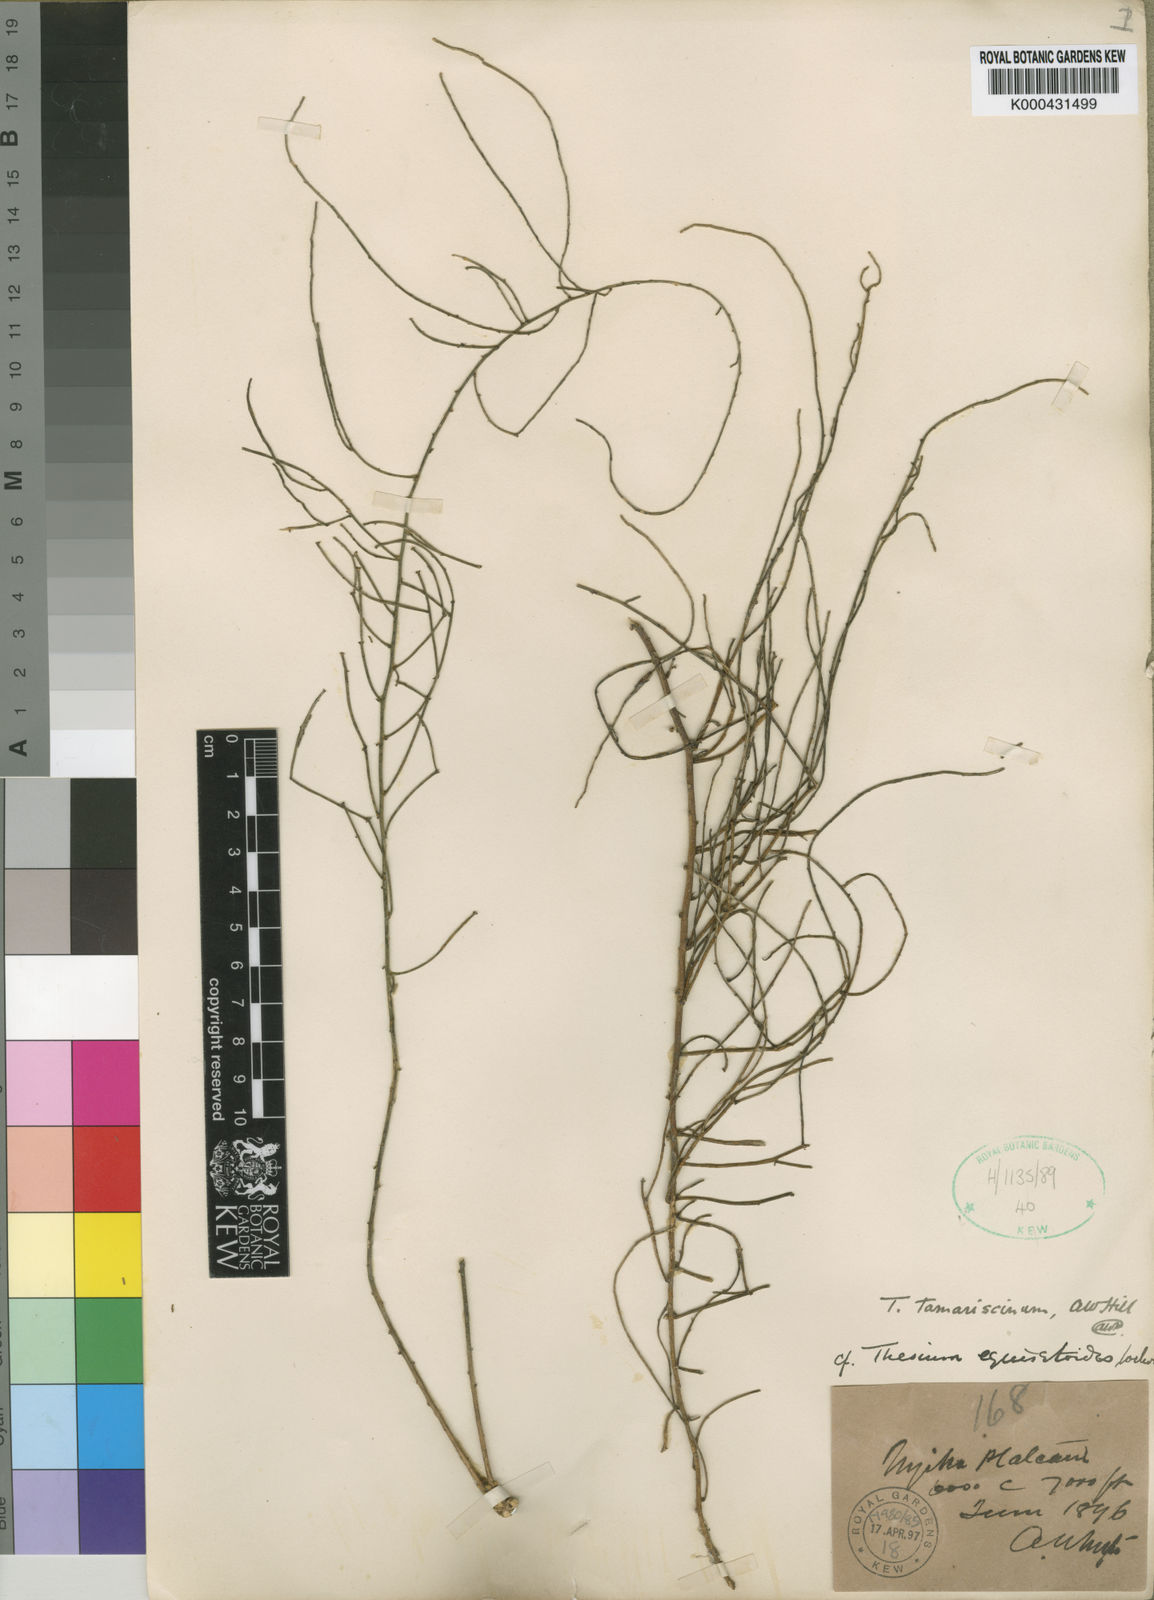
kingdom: Plantae
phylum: Tracheophyta
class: Magnoliopsida
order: Santalales
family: Thesiaceae
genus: Thesium
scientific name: Thesium fastigiatum
